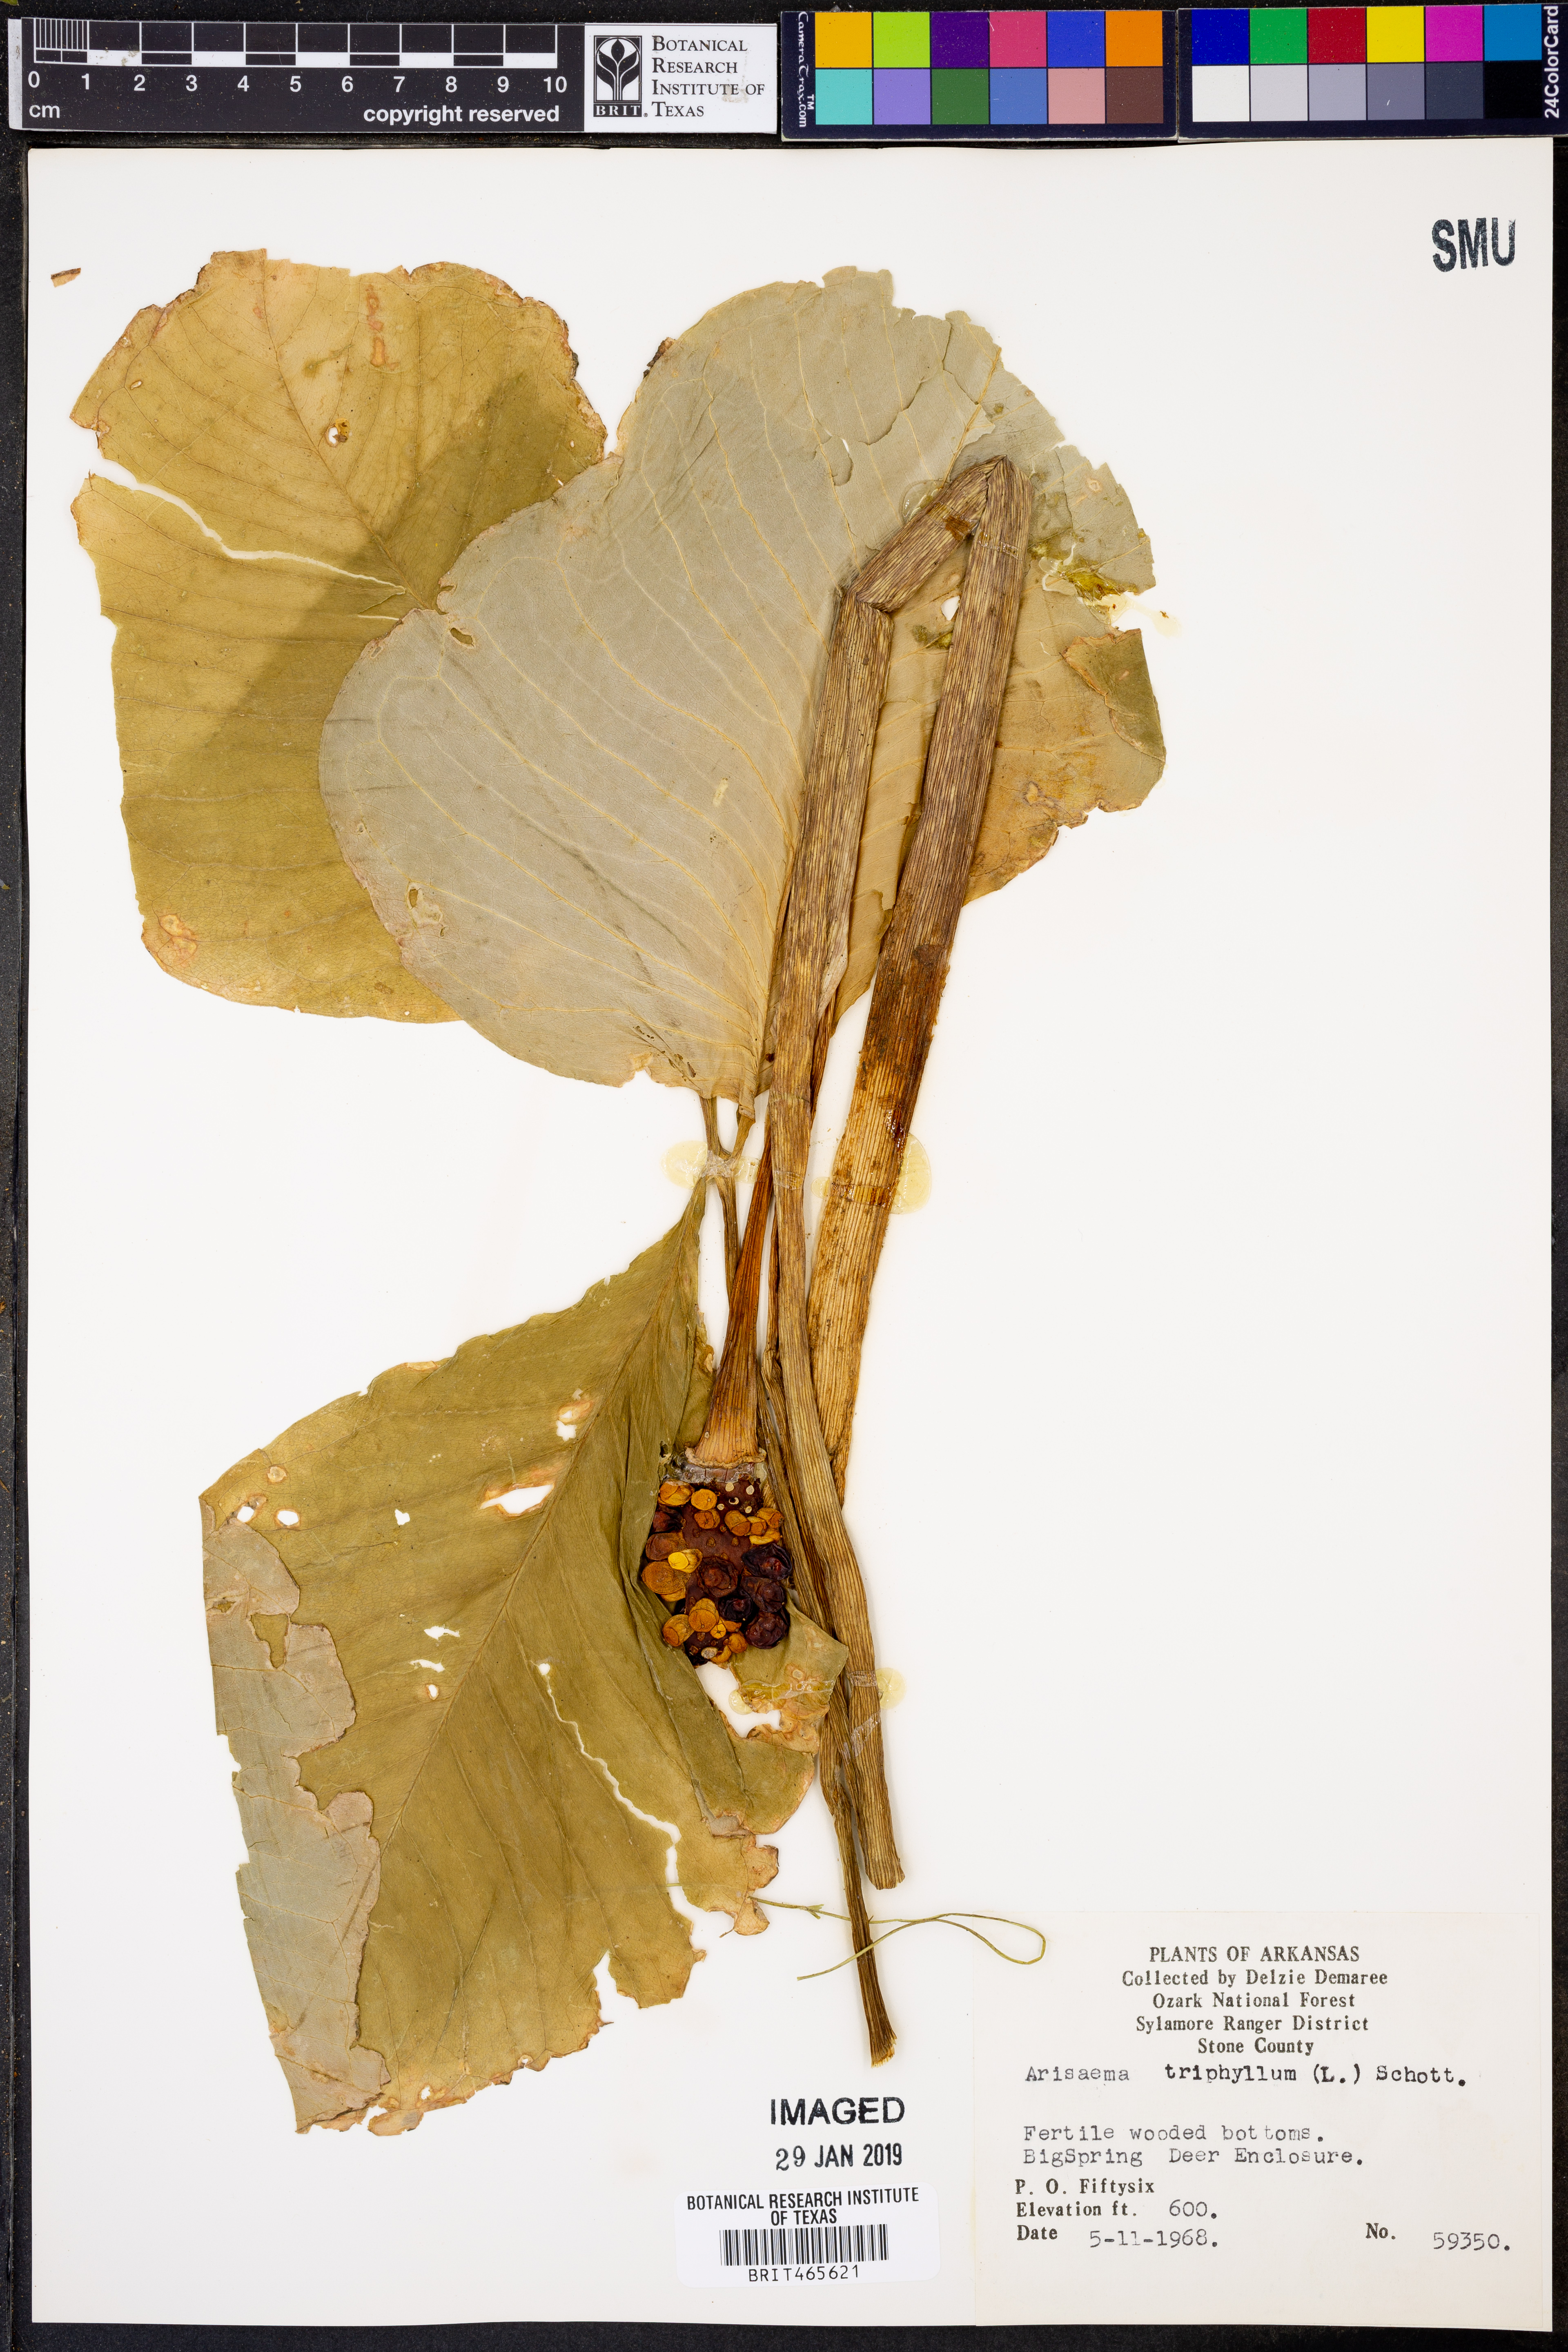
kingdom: Plantae
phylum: Tracheophyta
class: Liliopsida
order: Alismatales
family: Araceae
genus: Arisaema
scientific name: Arisaema triphyllum
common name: Jack-in-the-pulpit
